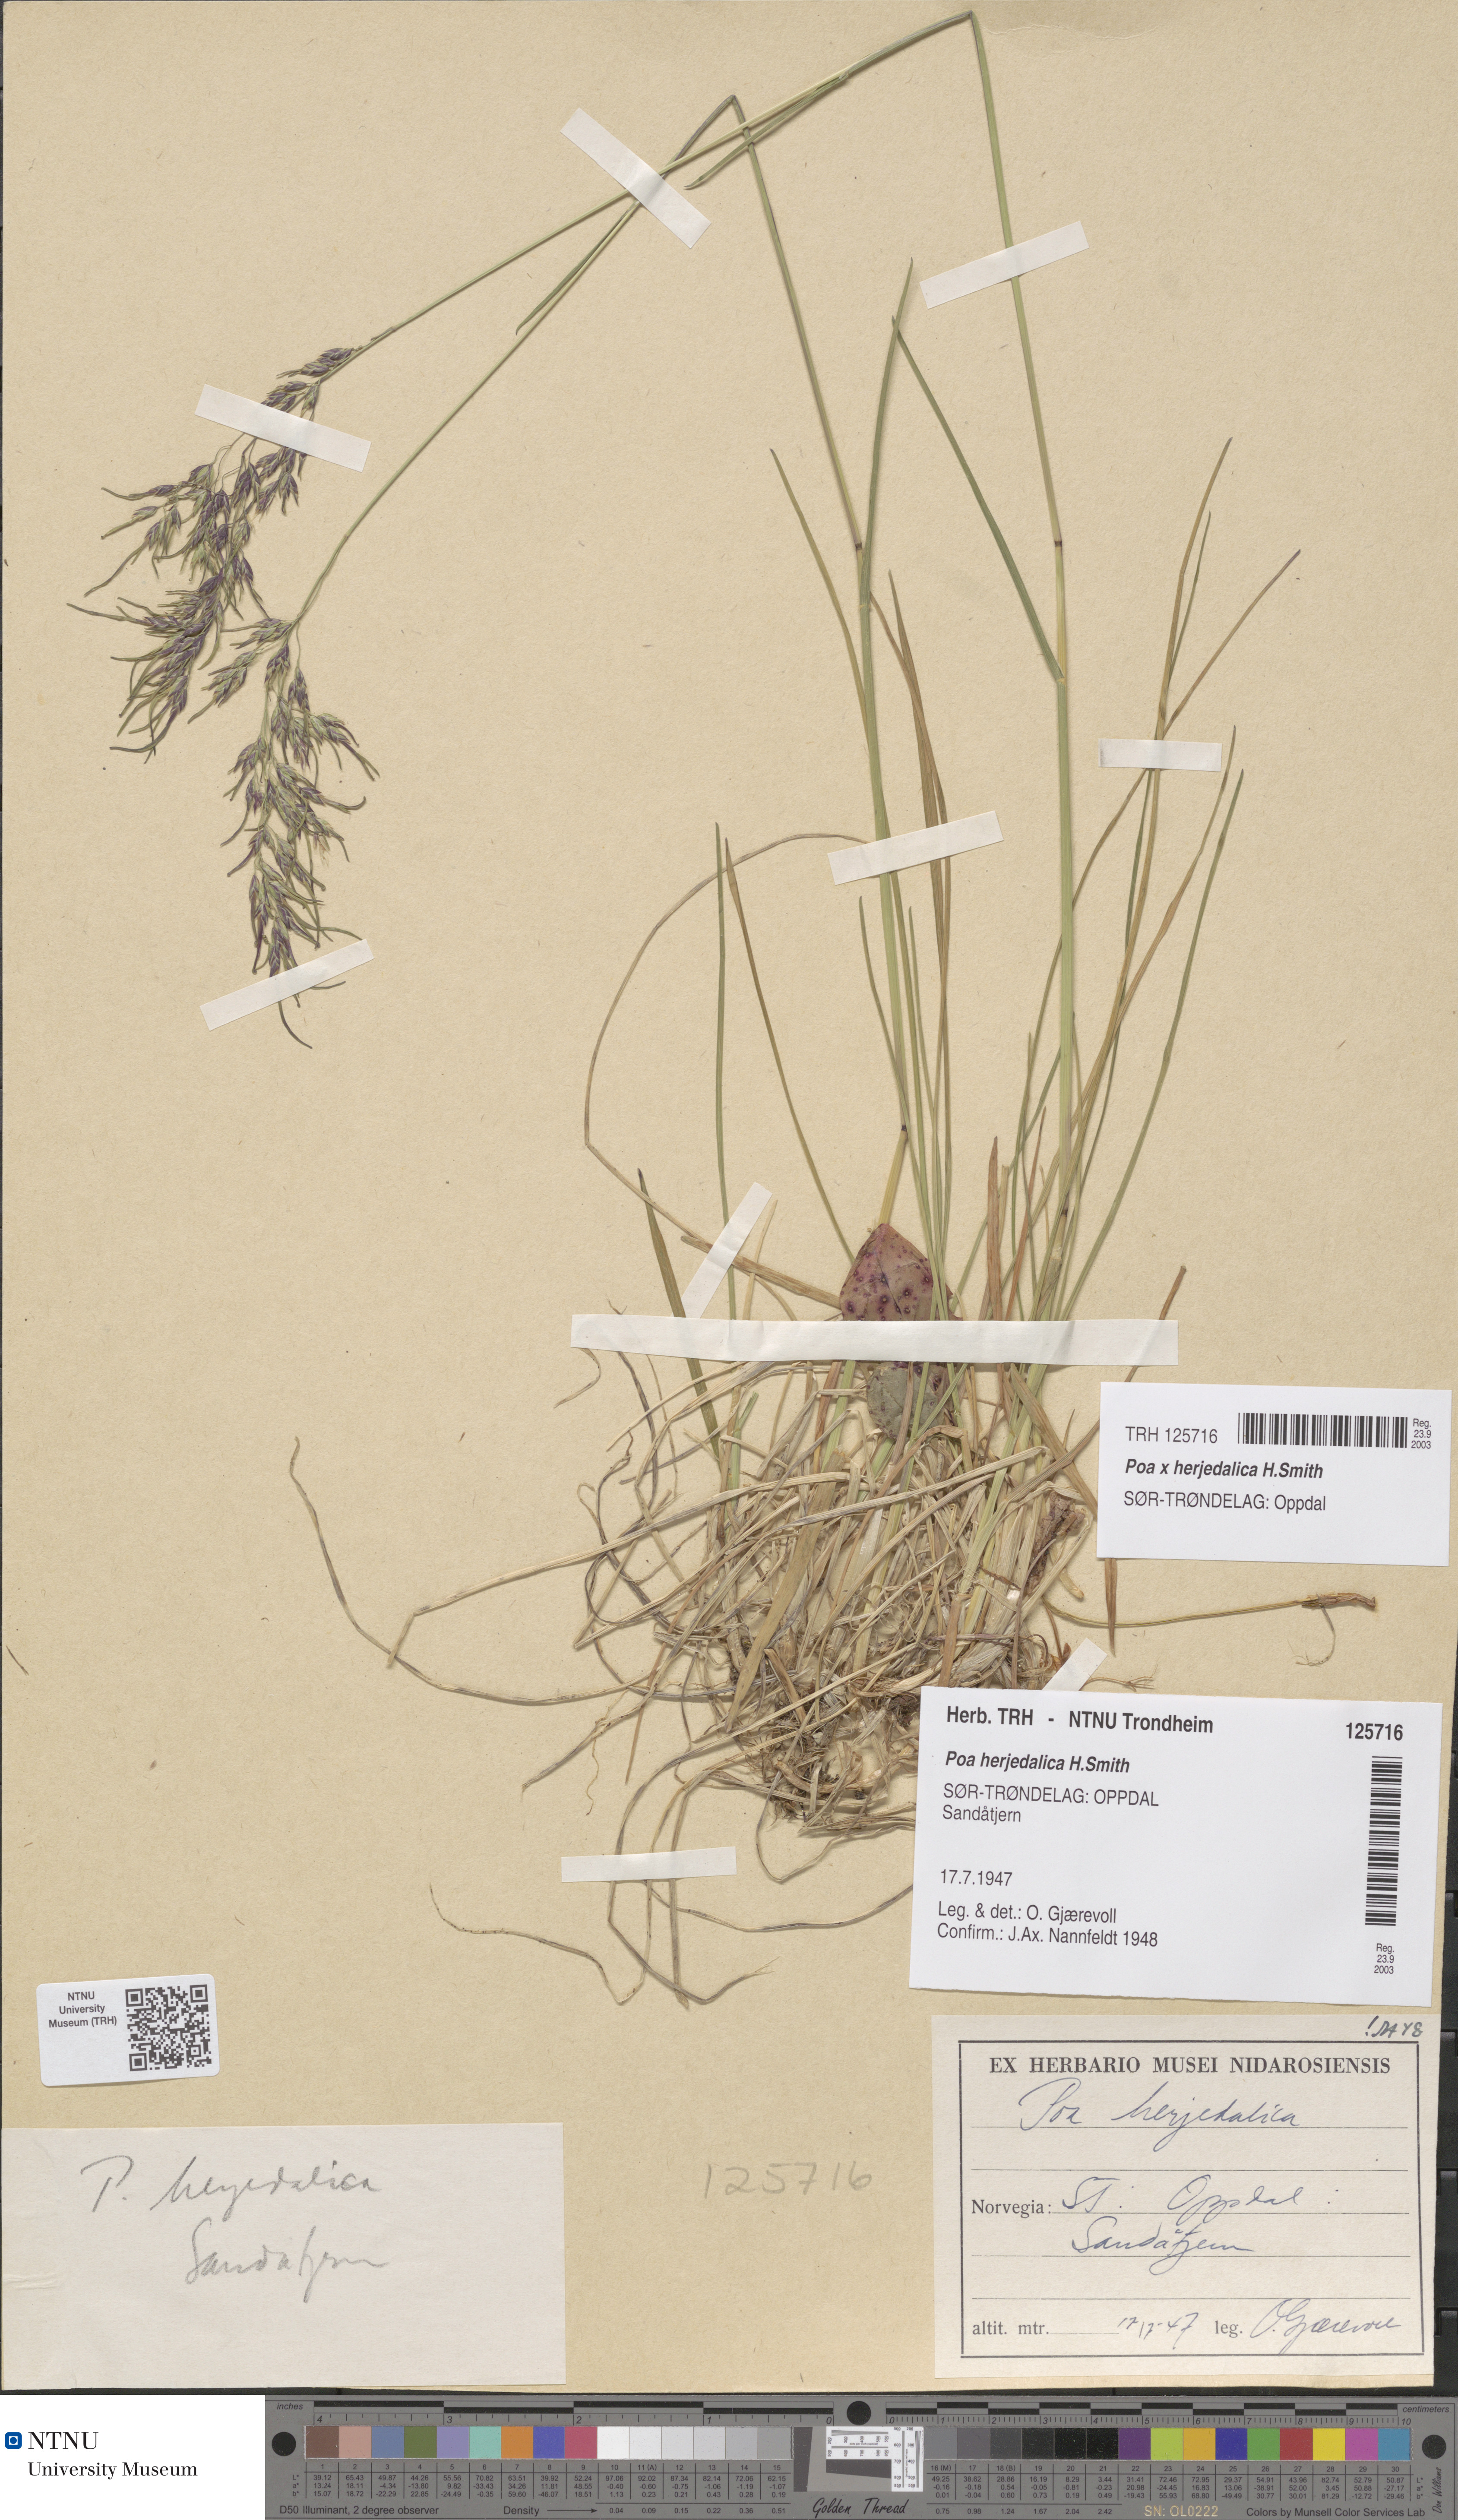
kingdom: Plantae
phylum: Tracheophyta
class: Liliopsida
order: Poales
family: Poaceae
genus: Poa
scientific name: Poa herjedalica
